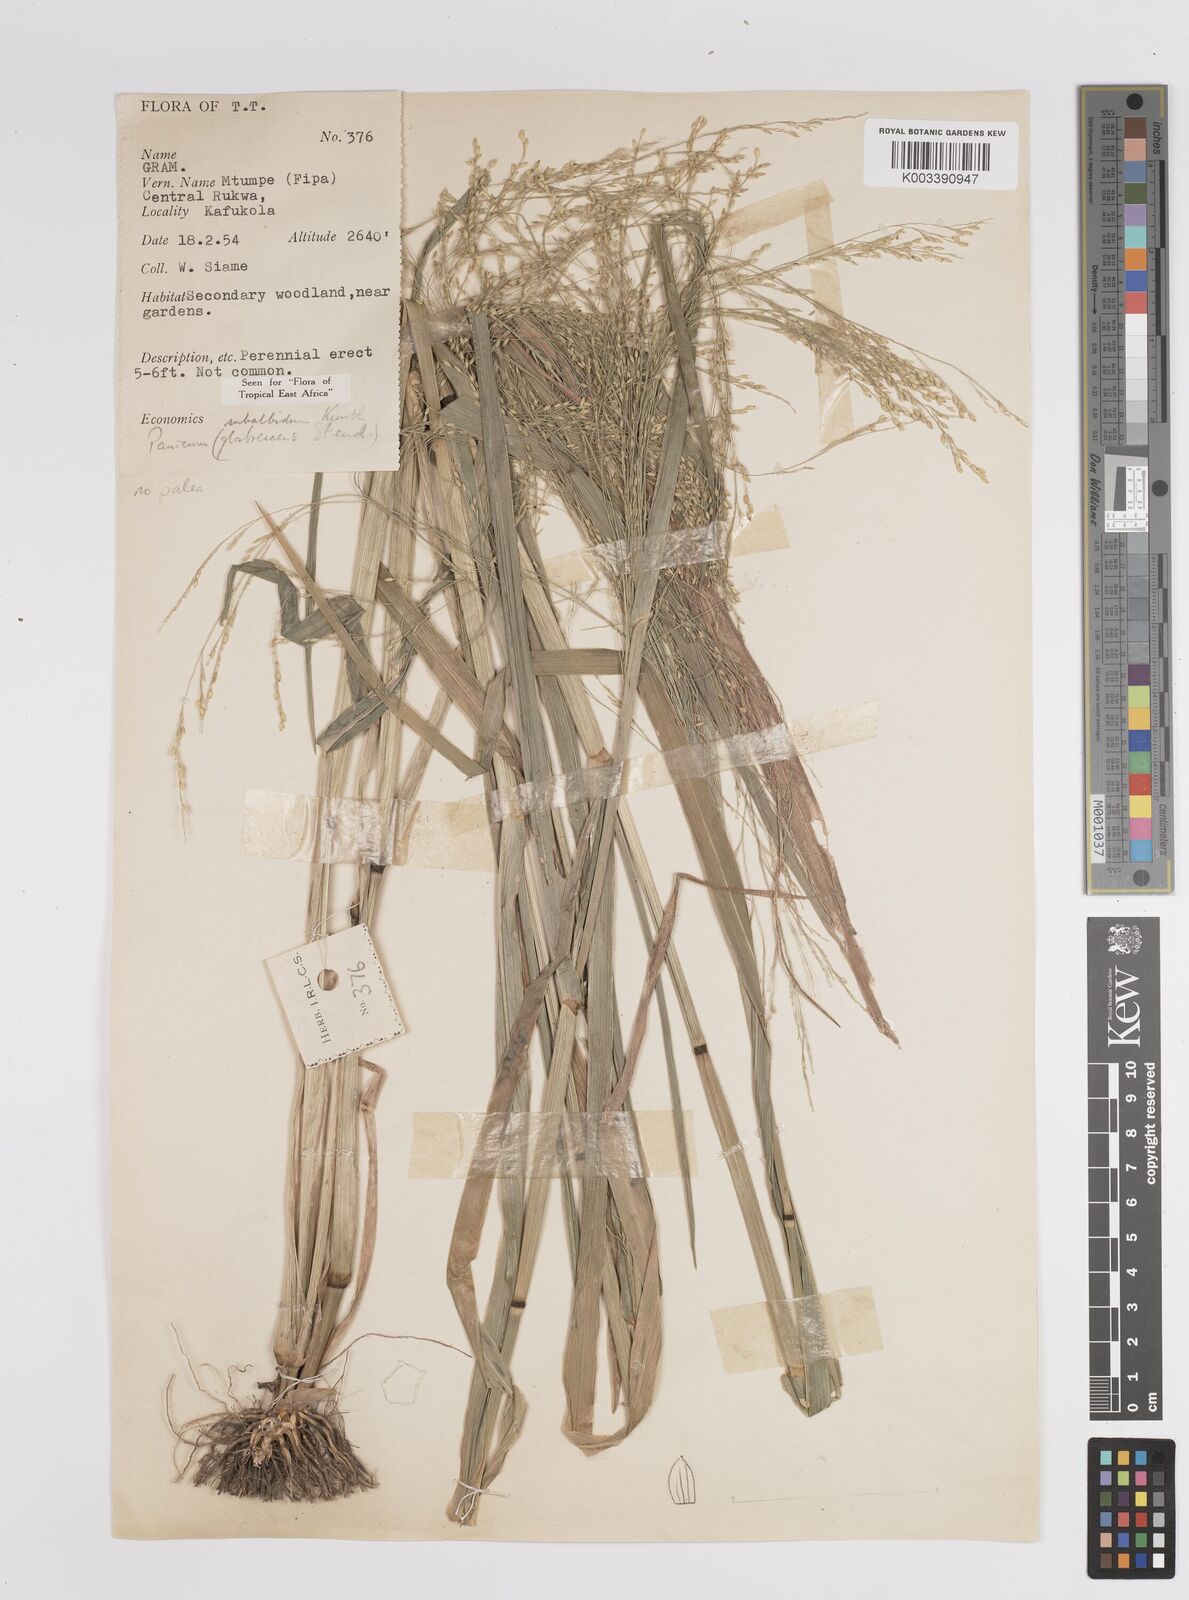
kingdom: Plantae
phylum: Tracheophyta
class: Liliopsida
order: Poales
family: Poaceae
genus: Panicum
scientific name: Panicum subalbidum
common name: Elbow buffalo grass
